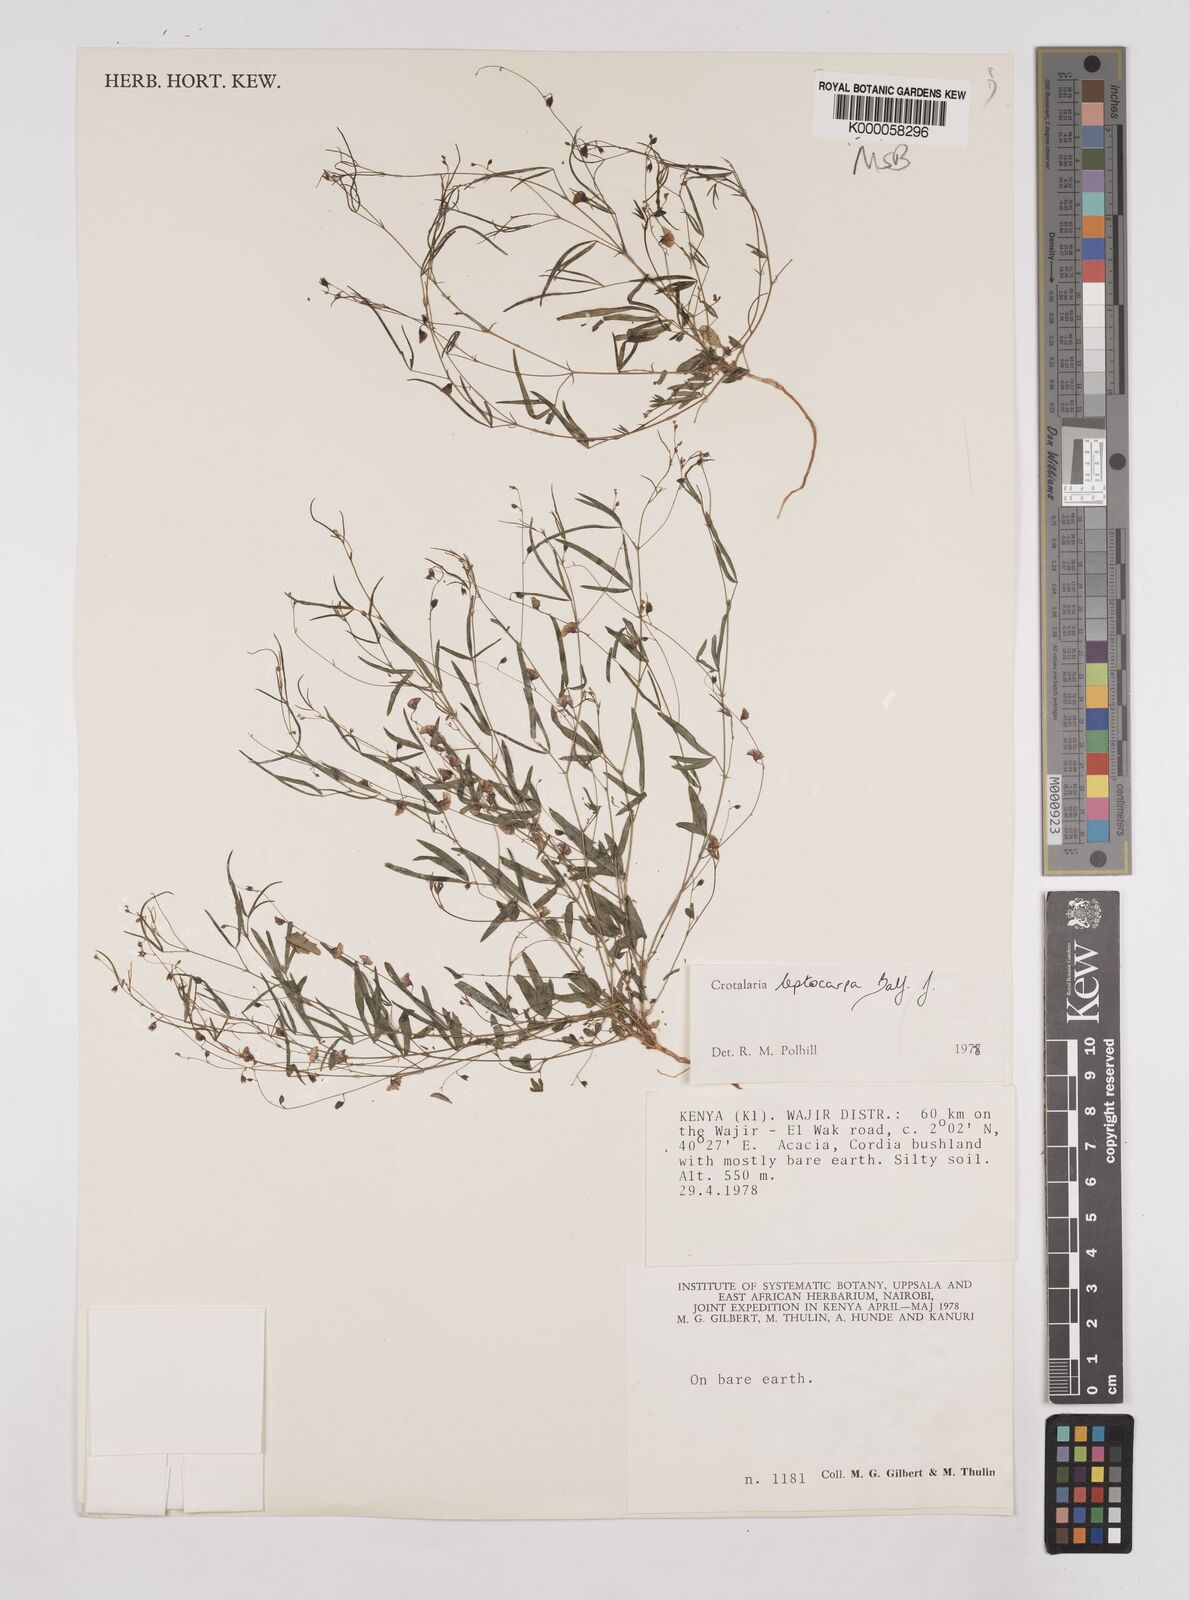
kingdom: Plantae
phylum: Tracheophyta
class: Magnoliopsida
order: Fabales
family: Fabaceae
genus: Crotalaria
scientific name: Crotalaria leptocarpa
